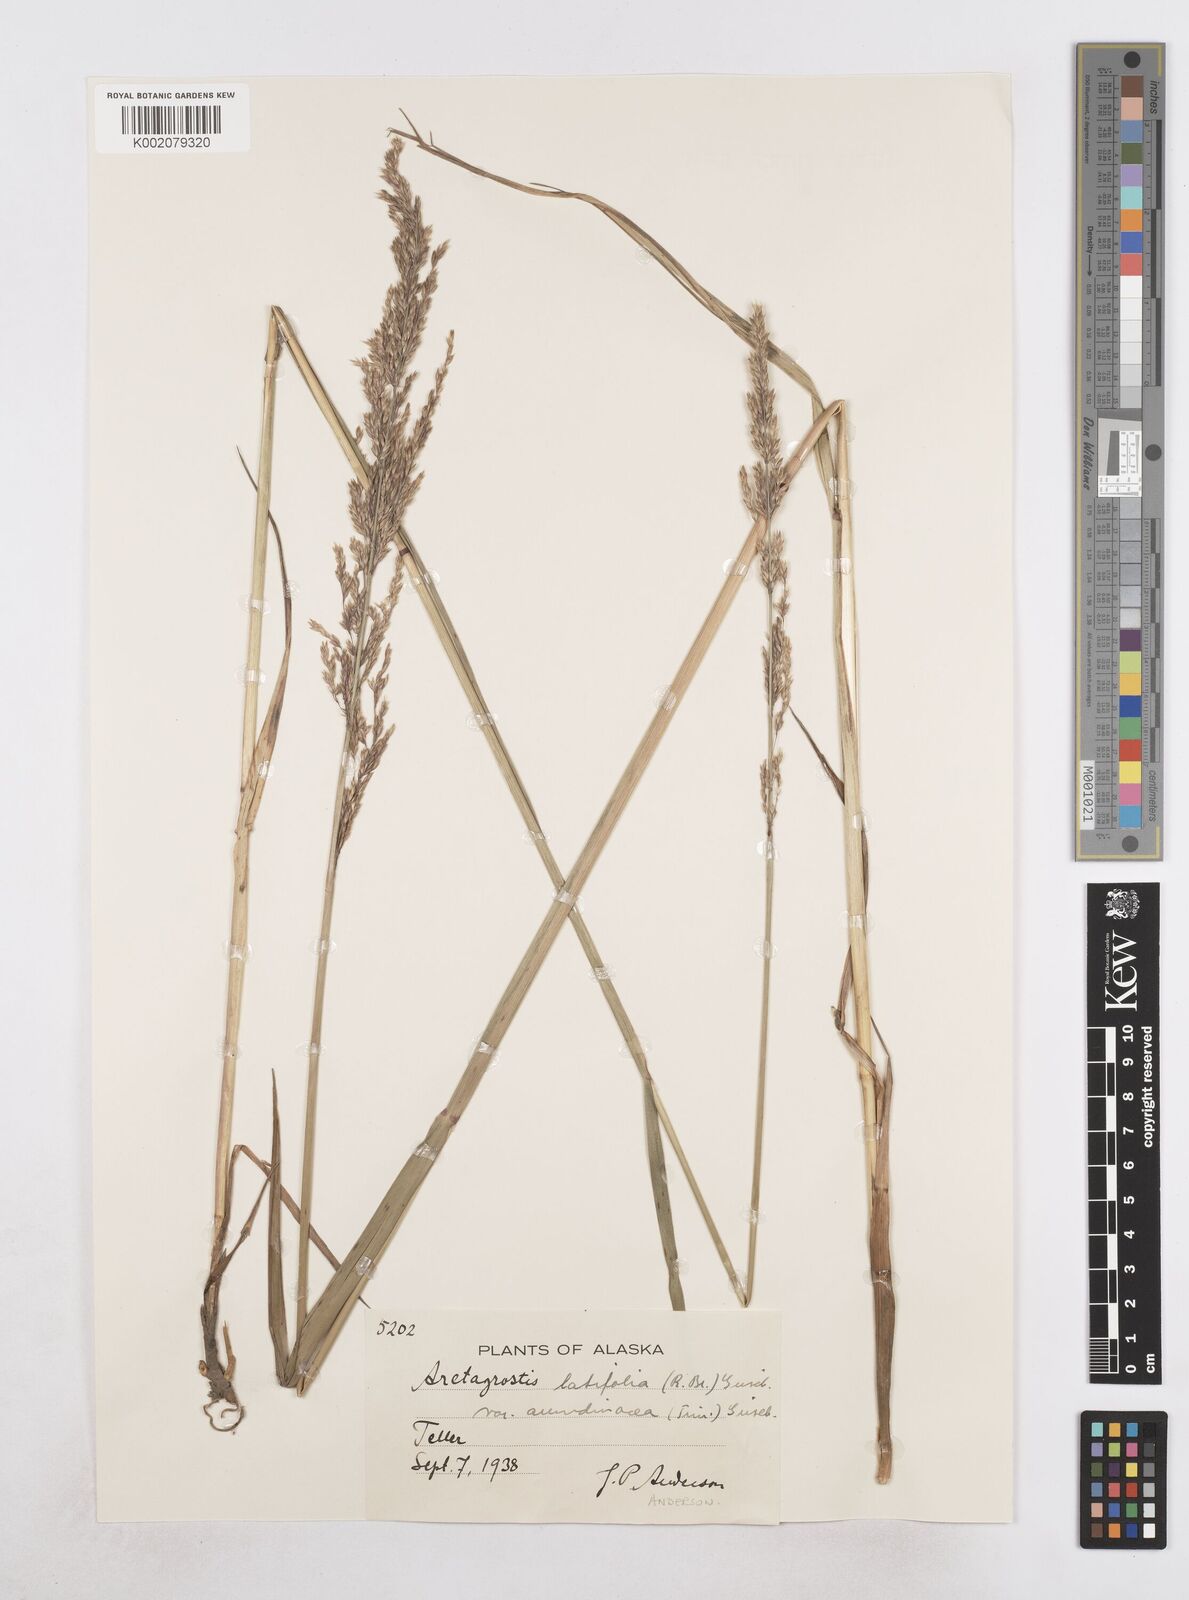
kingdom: Plantae
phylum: Tracheophyta
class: Liliopsida
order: Poales
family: Poaceae
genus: Arctagrostis
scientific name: Arctagrostis arundinacea
